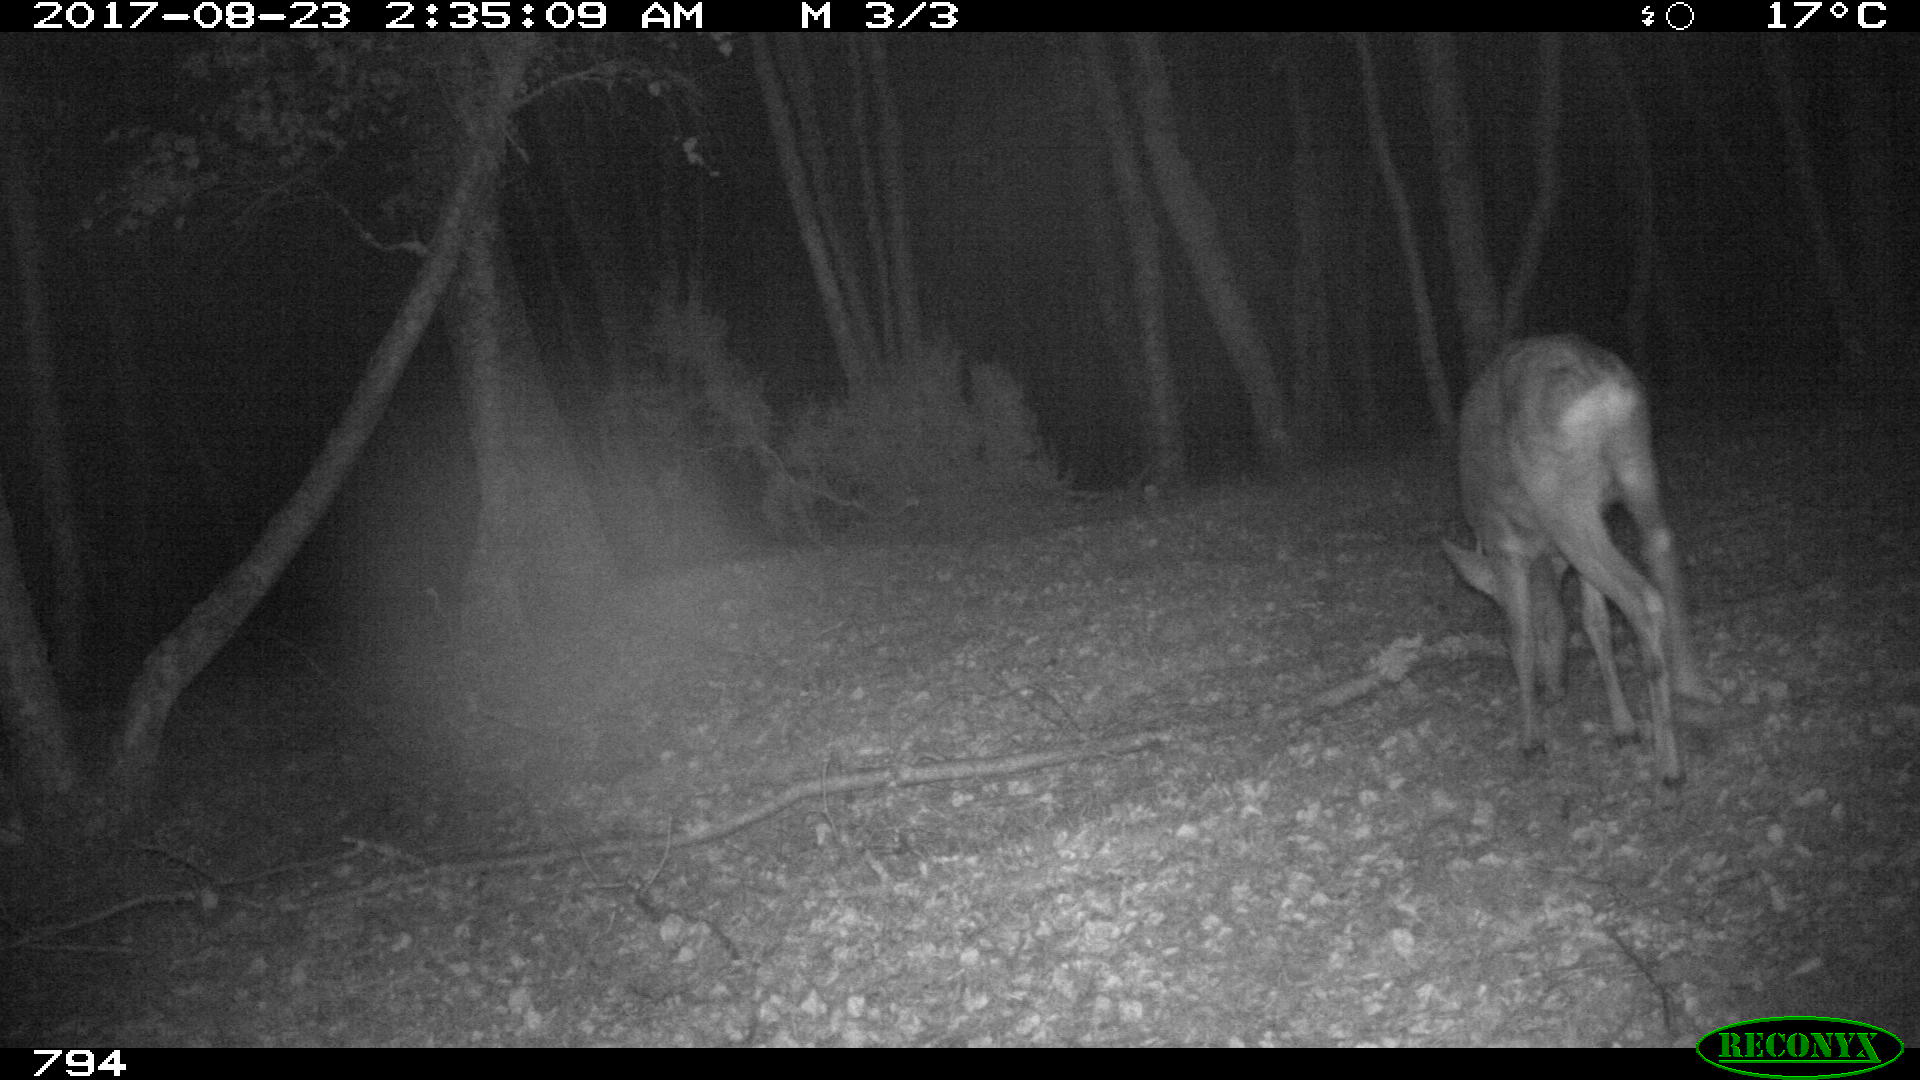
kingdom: Animalia
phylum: Chordata
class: Mammalia
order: Artiodactyla
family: Cervidae
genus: Capreolus
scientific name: Capreolus capreolus
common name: Western roe deer
